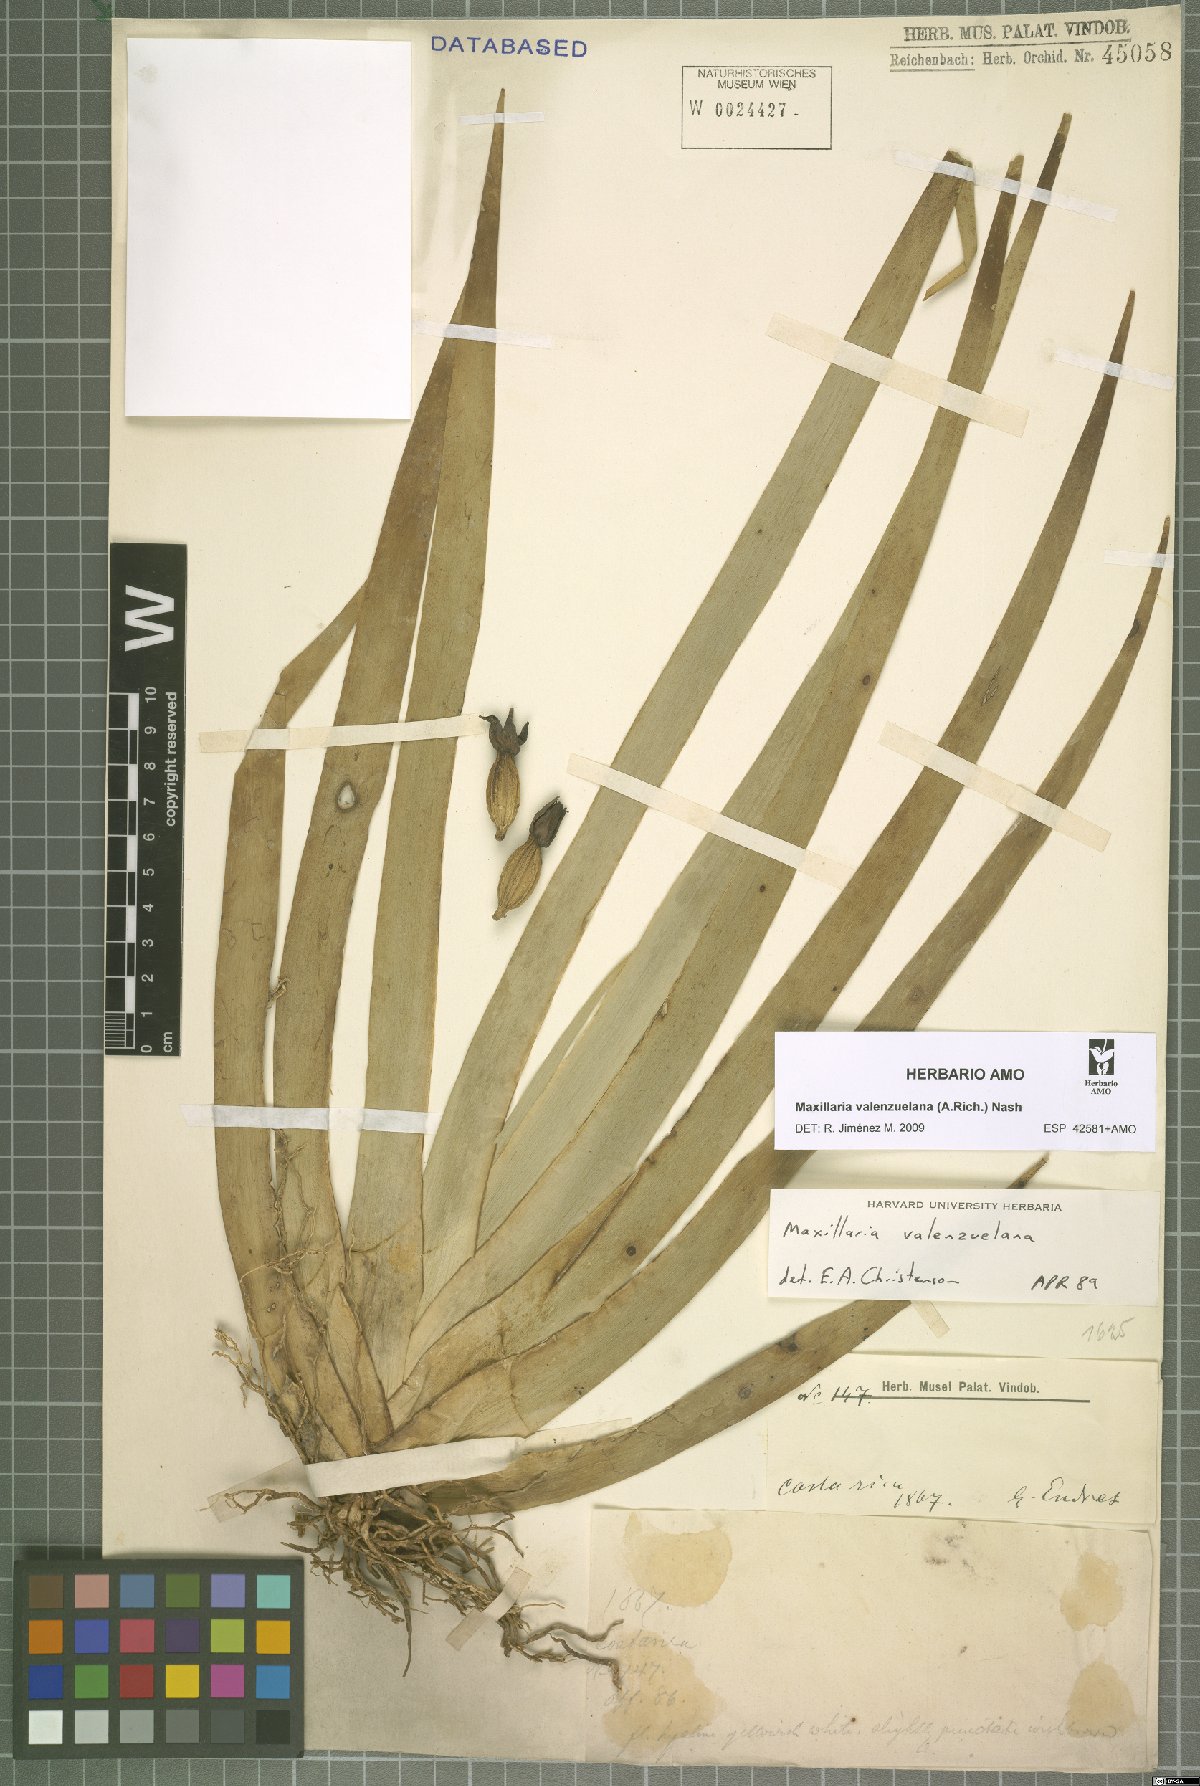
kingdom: Plantae
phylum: Tracheophyta
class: Liliopsida
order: Asparagales
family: Orchidaceae
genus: Maxillaria
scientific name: Maxillaria valenzuelana
